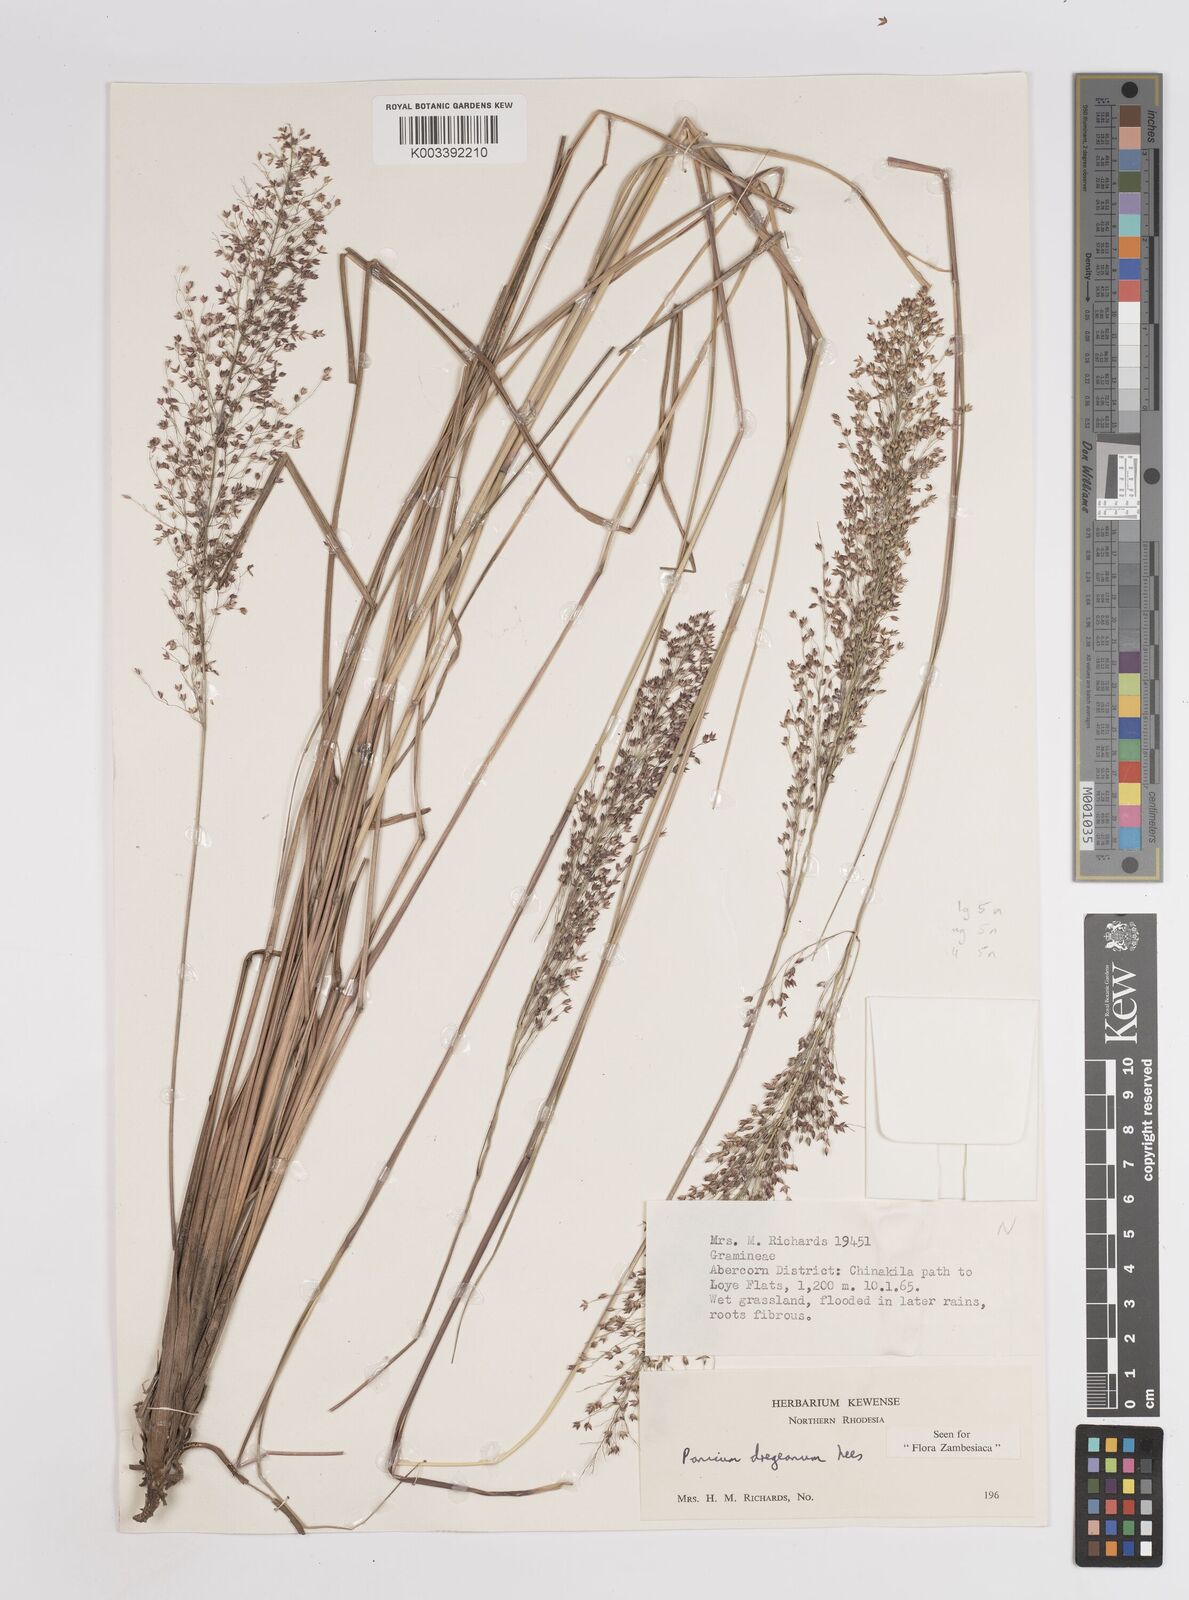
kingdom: Plantae
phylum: Tracheophyta
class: Liliopsida
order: Poales
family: Poaceae
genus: Panicum
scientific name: Panicum dregeanum
